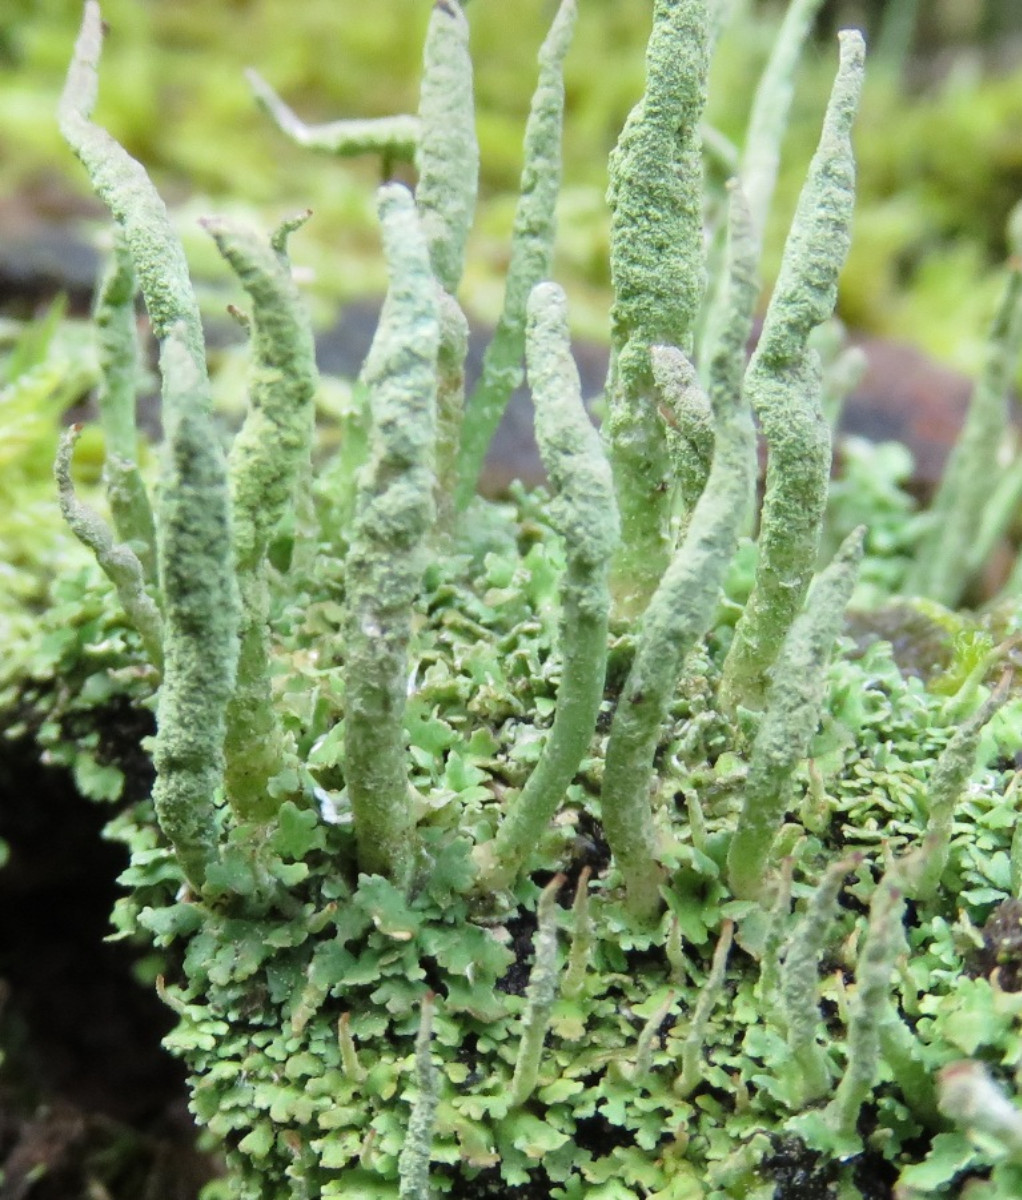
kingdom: Fungi
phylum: Ascomycota
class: Lecanoromycetes
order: Lecanorales
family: Cladoniaceae
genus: Cladonia
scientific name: Cladonia coniocraea
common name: træfods-bægerlav
